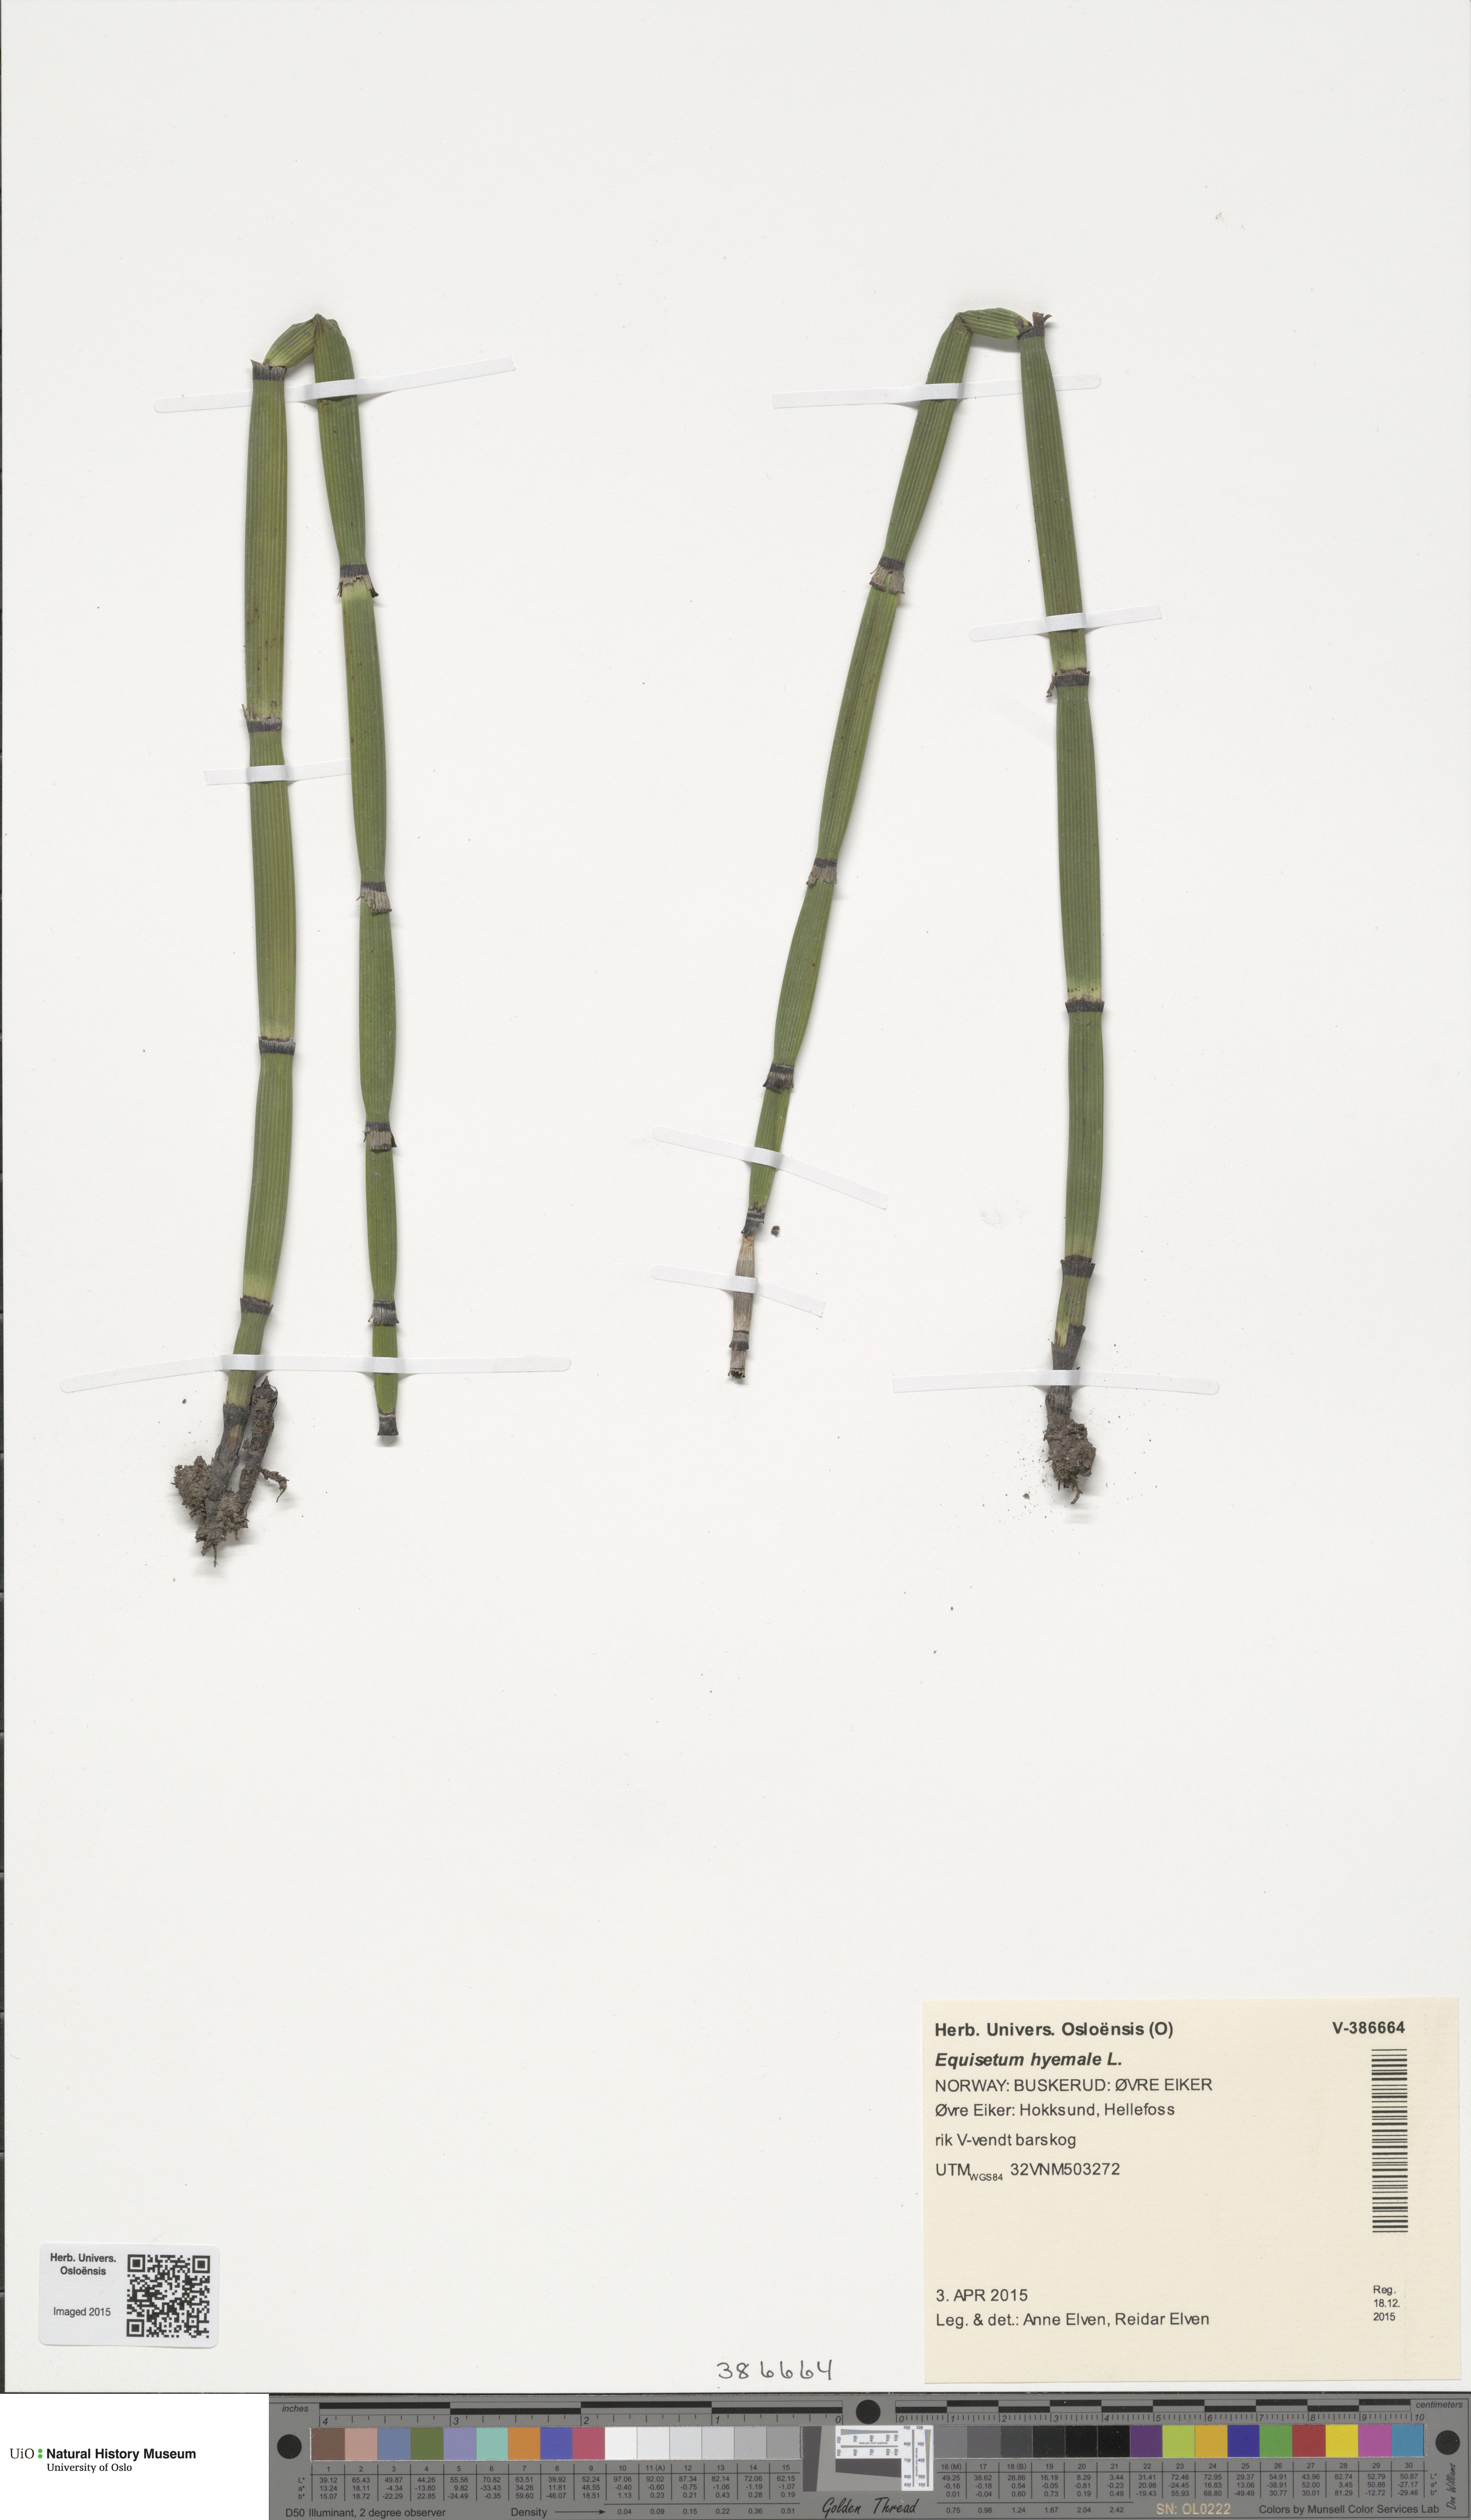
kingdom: Plantae
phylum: Tracheophyta
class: Polypodiopsida
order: Equisetales
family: Equisetaceae
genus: Equisetum
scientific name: Equisetum hyemale
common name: Rough horsetail
